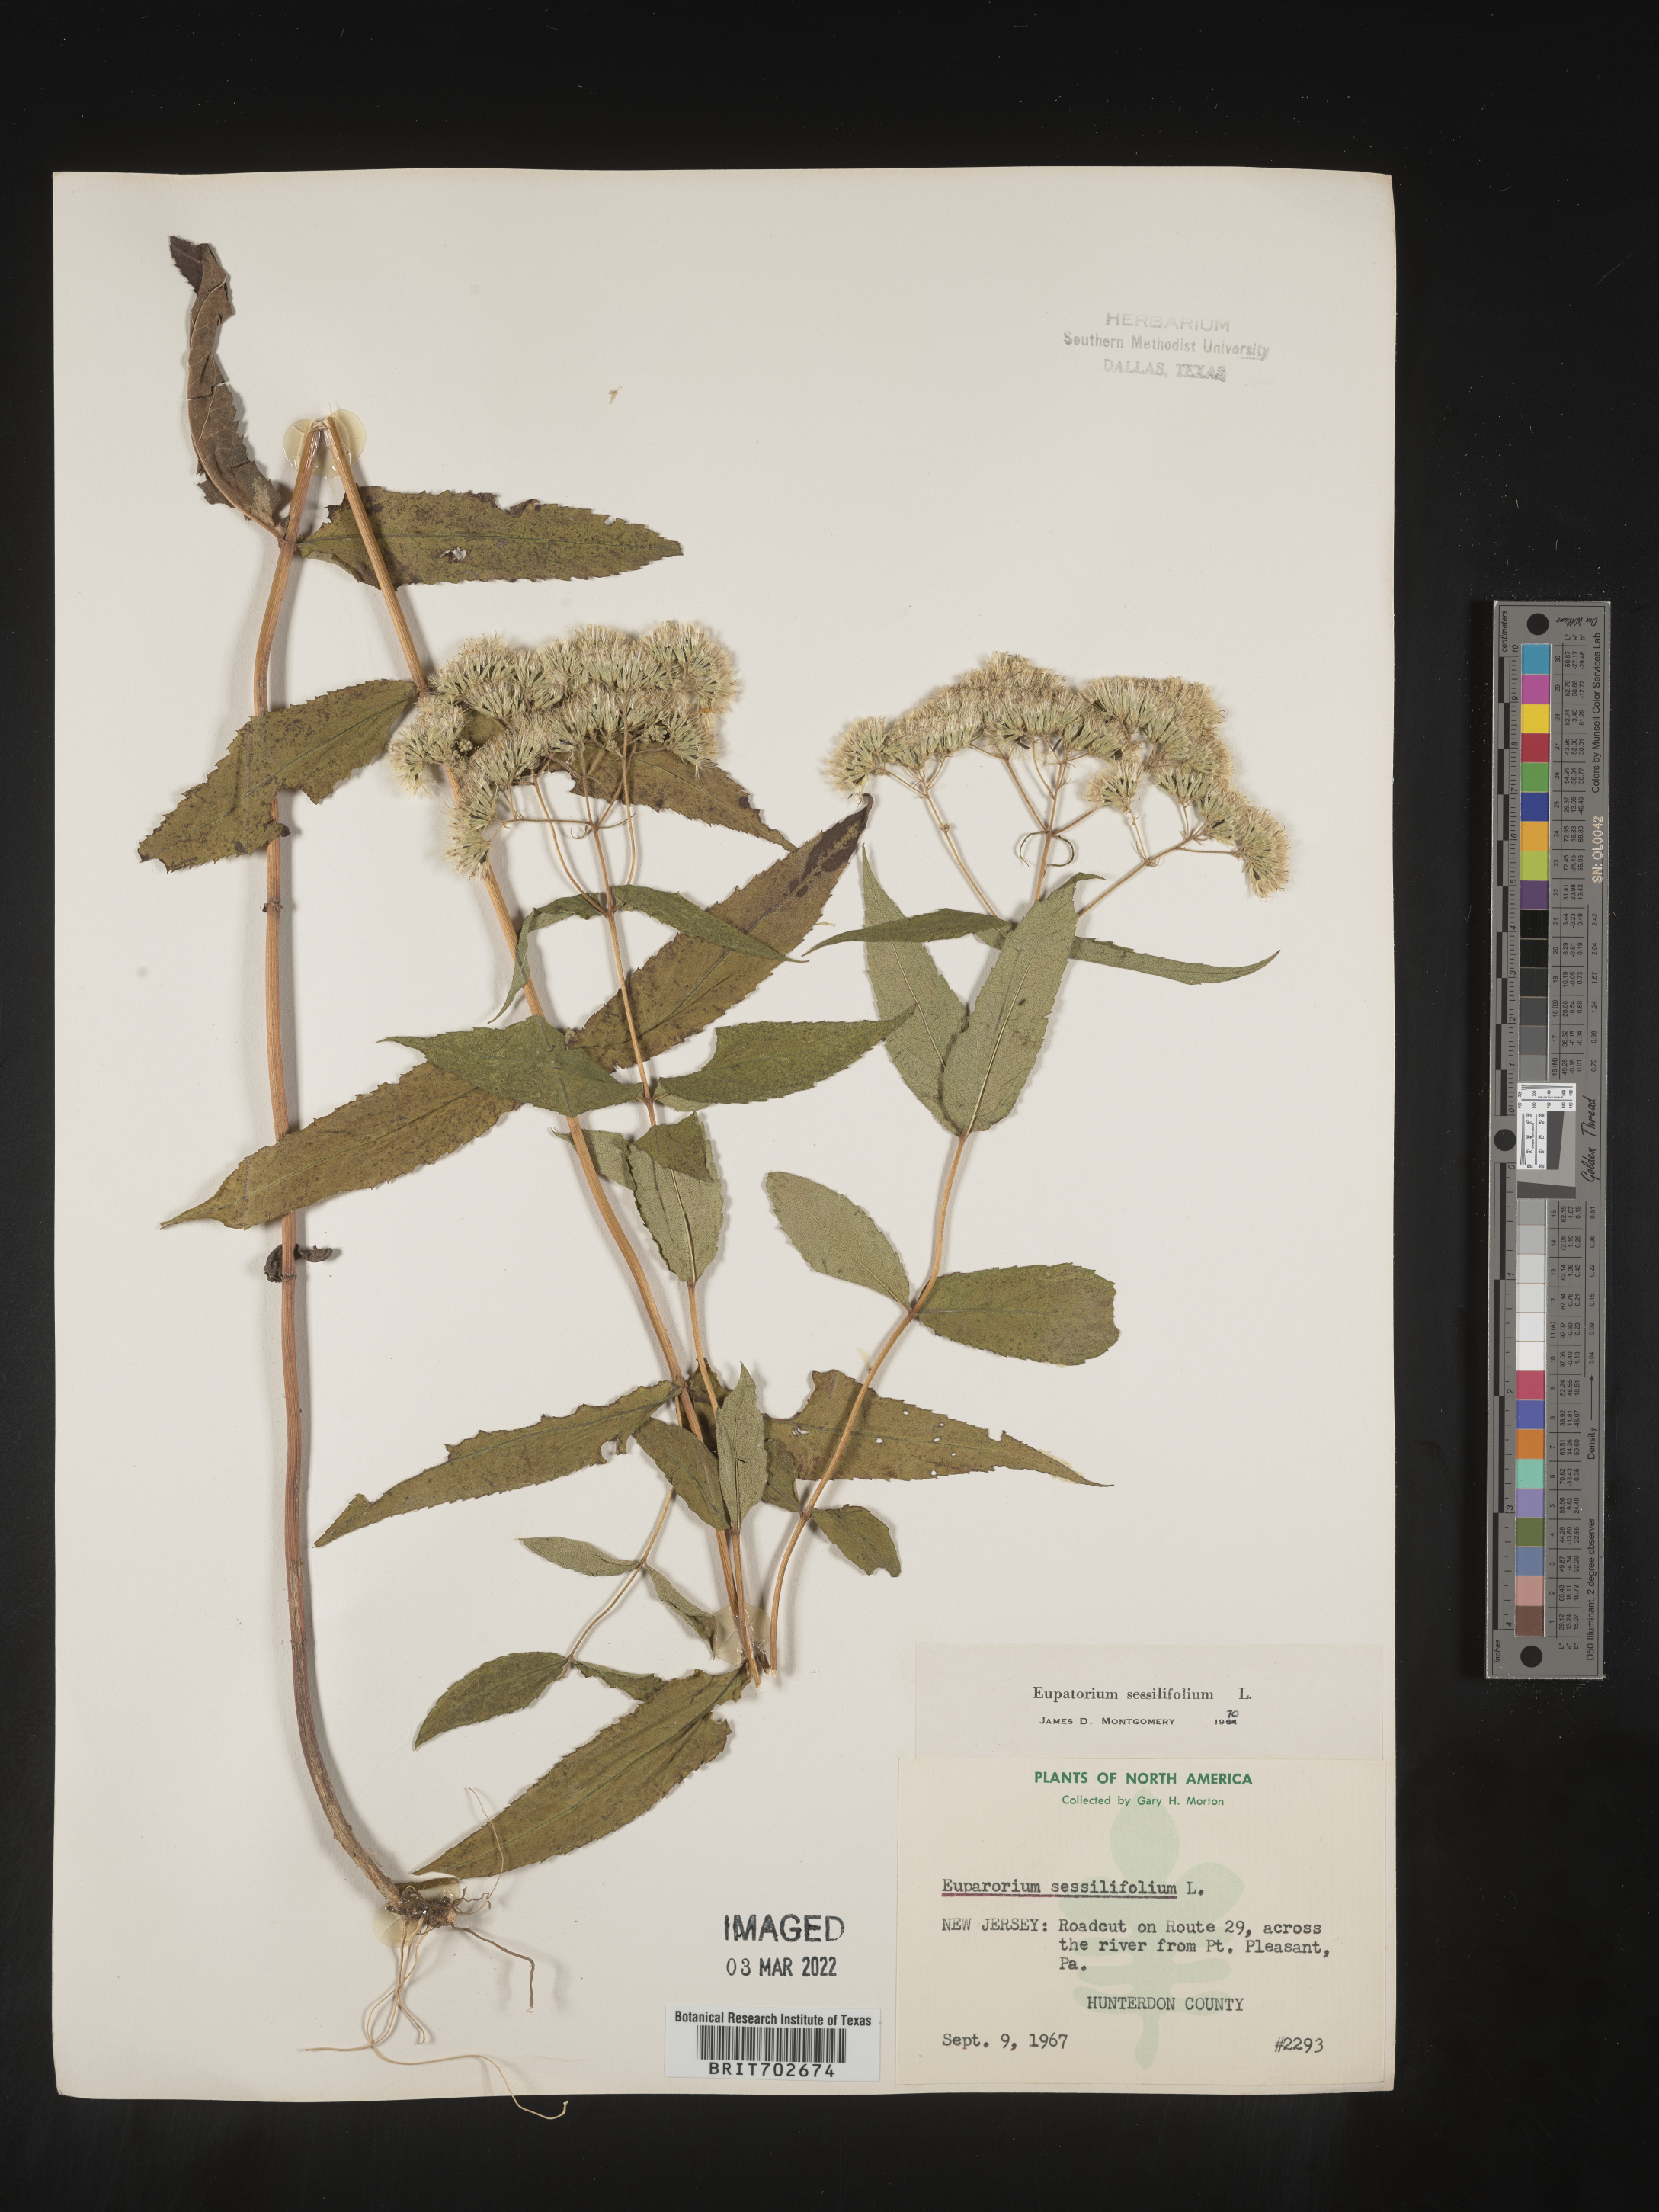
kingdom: Plantae
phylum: Tracheophyta
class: Magnoliopsida
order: Asterales
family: Asteraceae
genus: Eupatorium
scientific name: Eupatorium sessilifolium
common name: Upland boneset
